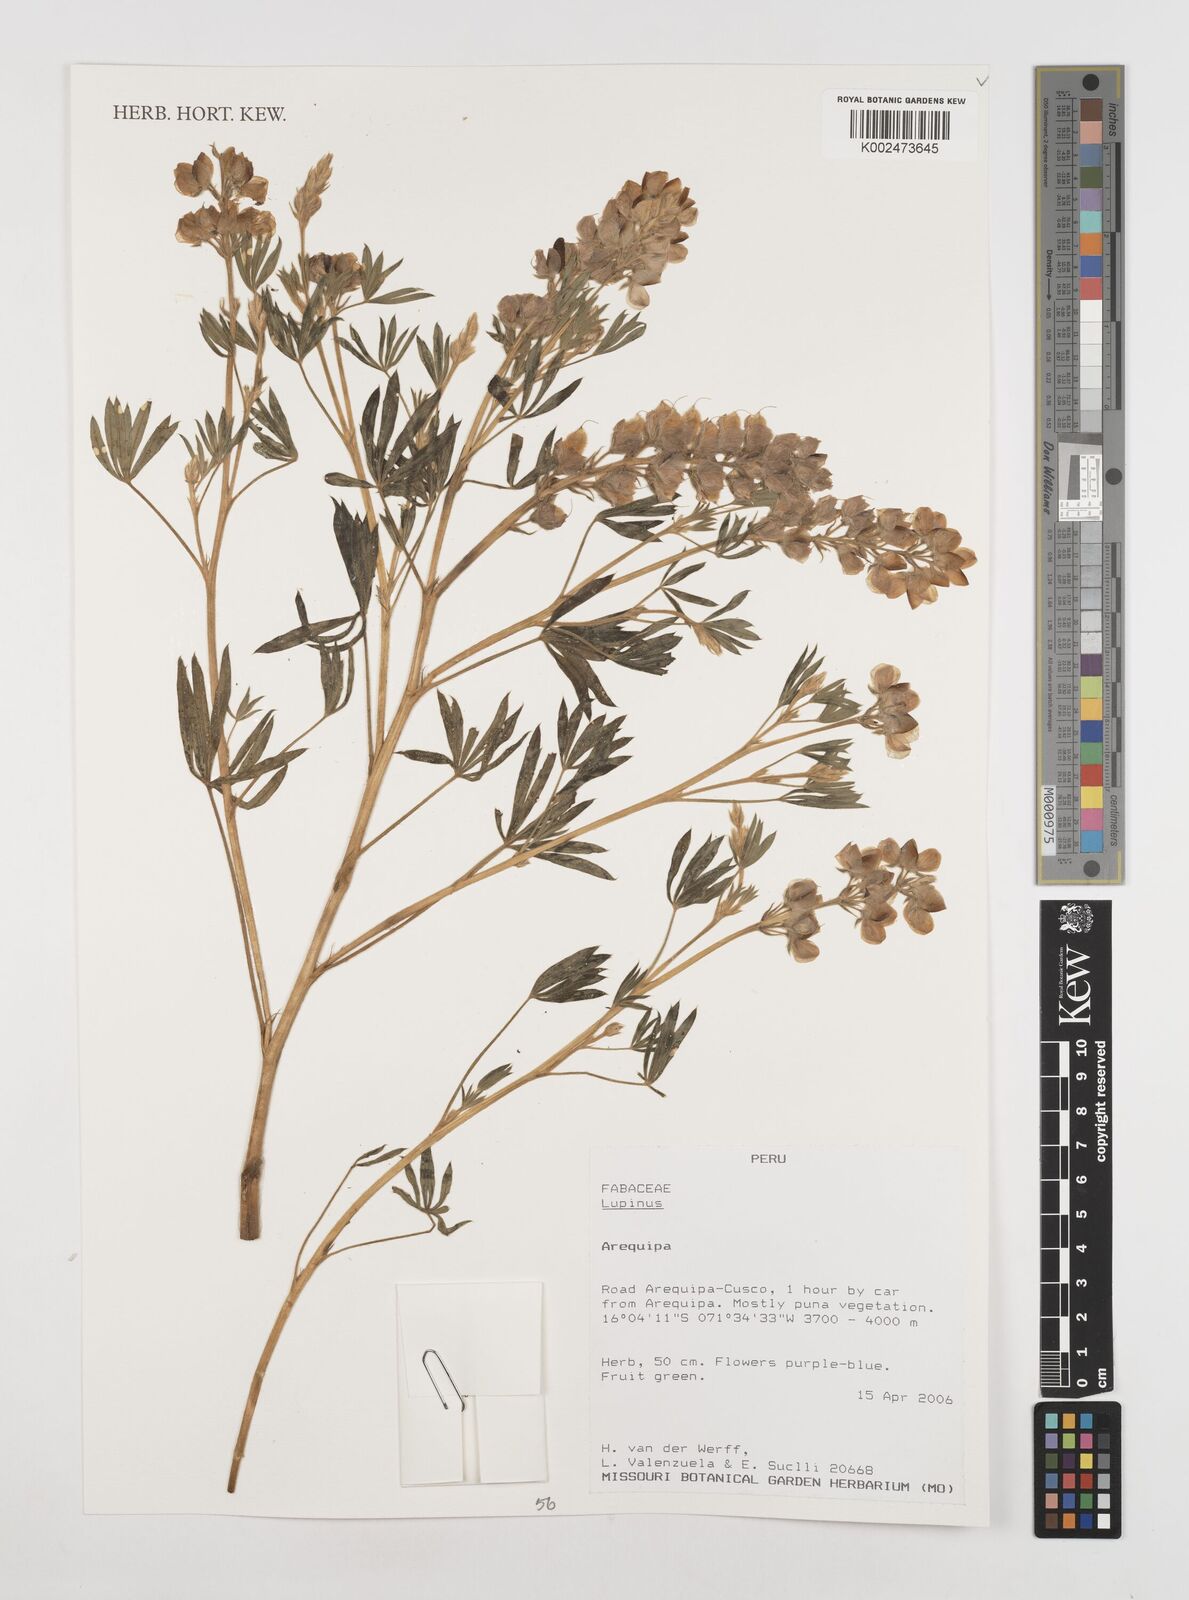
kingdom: Plantae
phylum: Tracheophyta
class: Magnoliopsida
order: Fabales
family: Fabaceae
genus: Lupinus
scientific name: Lupinus
